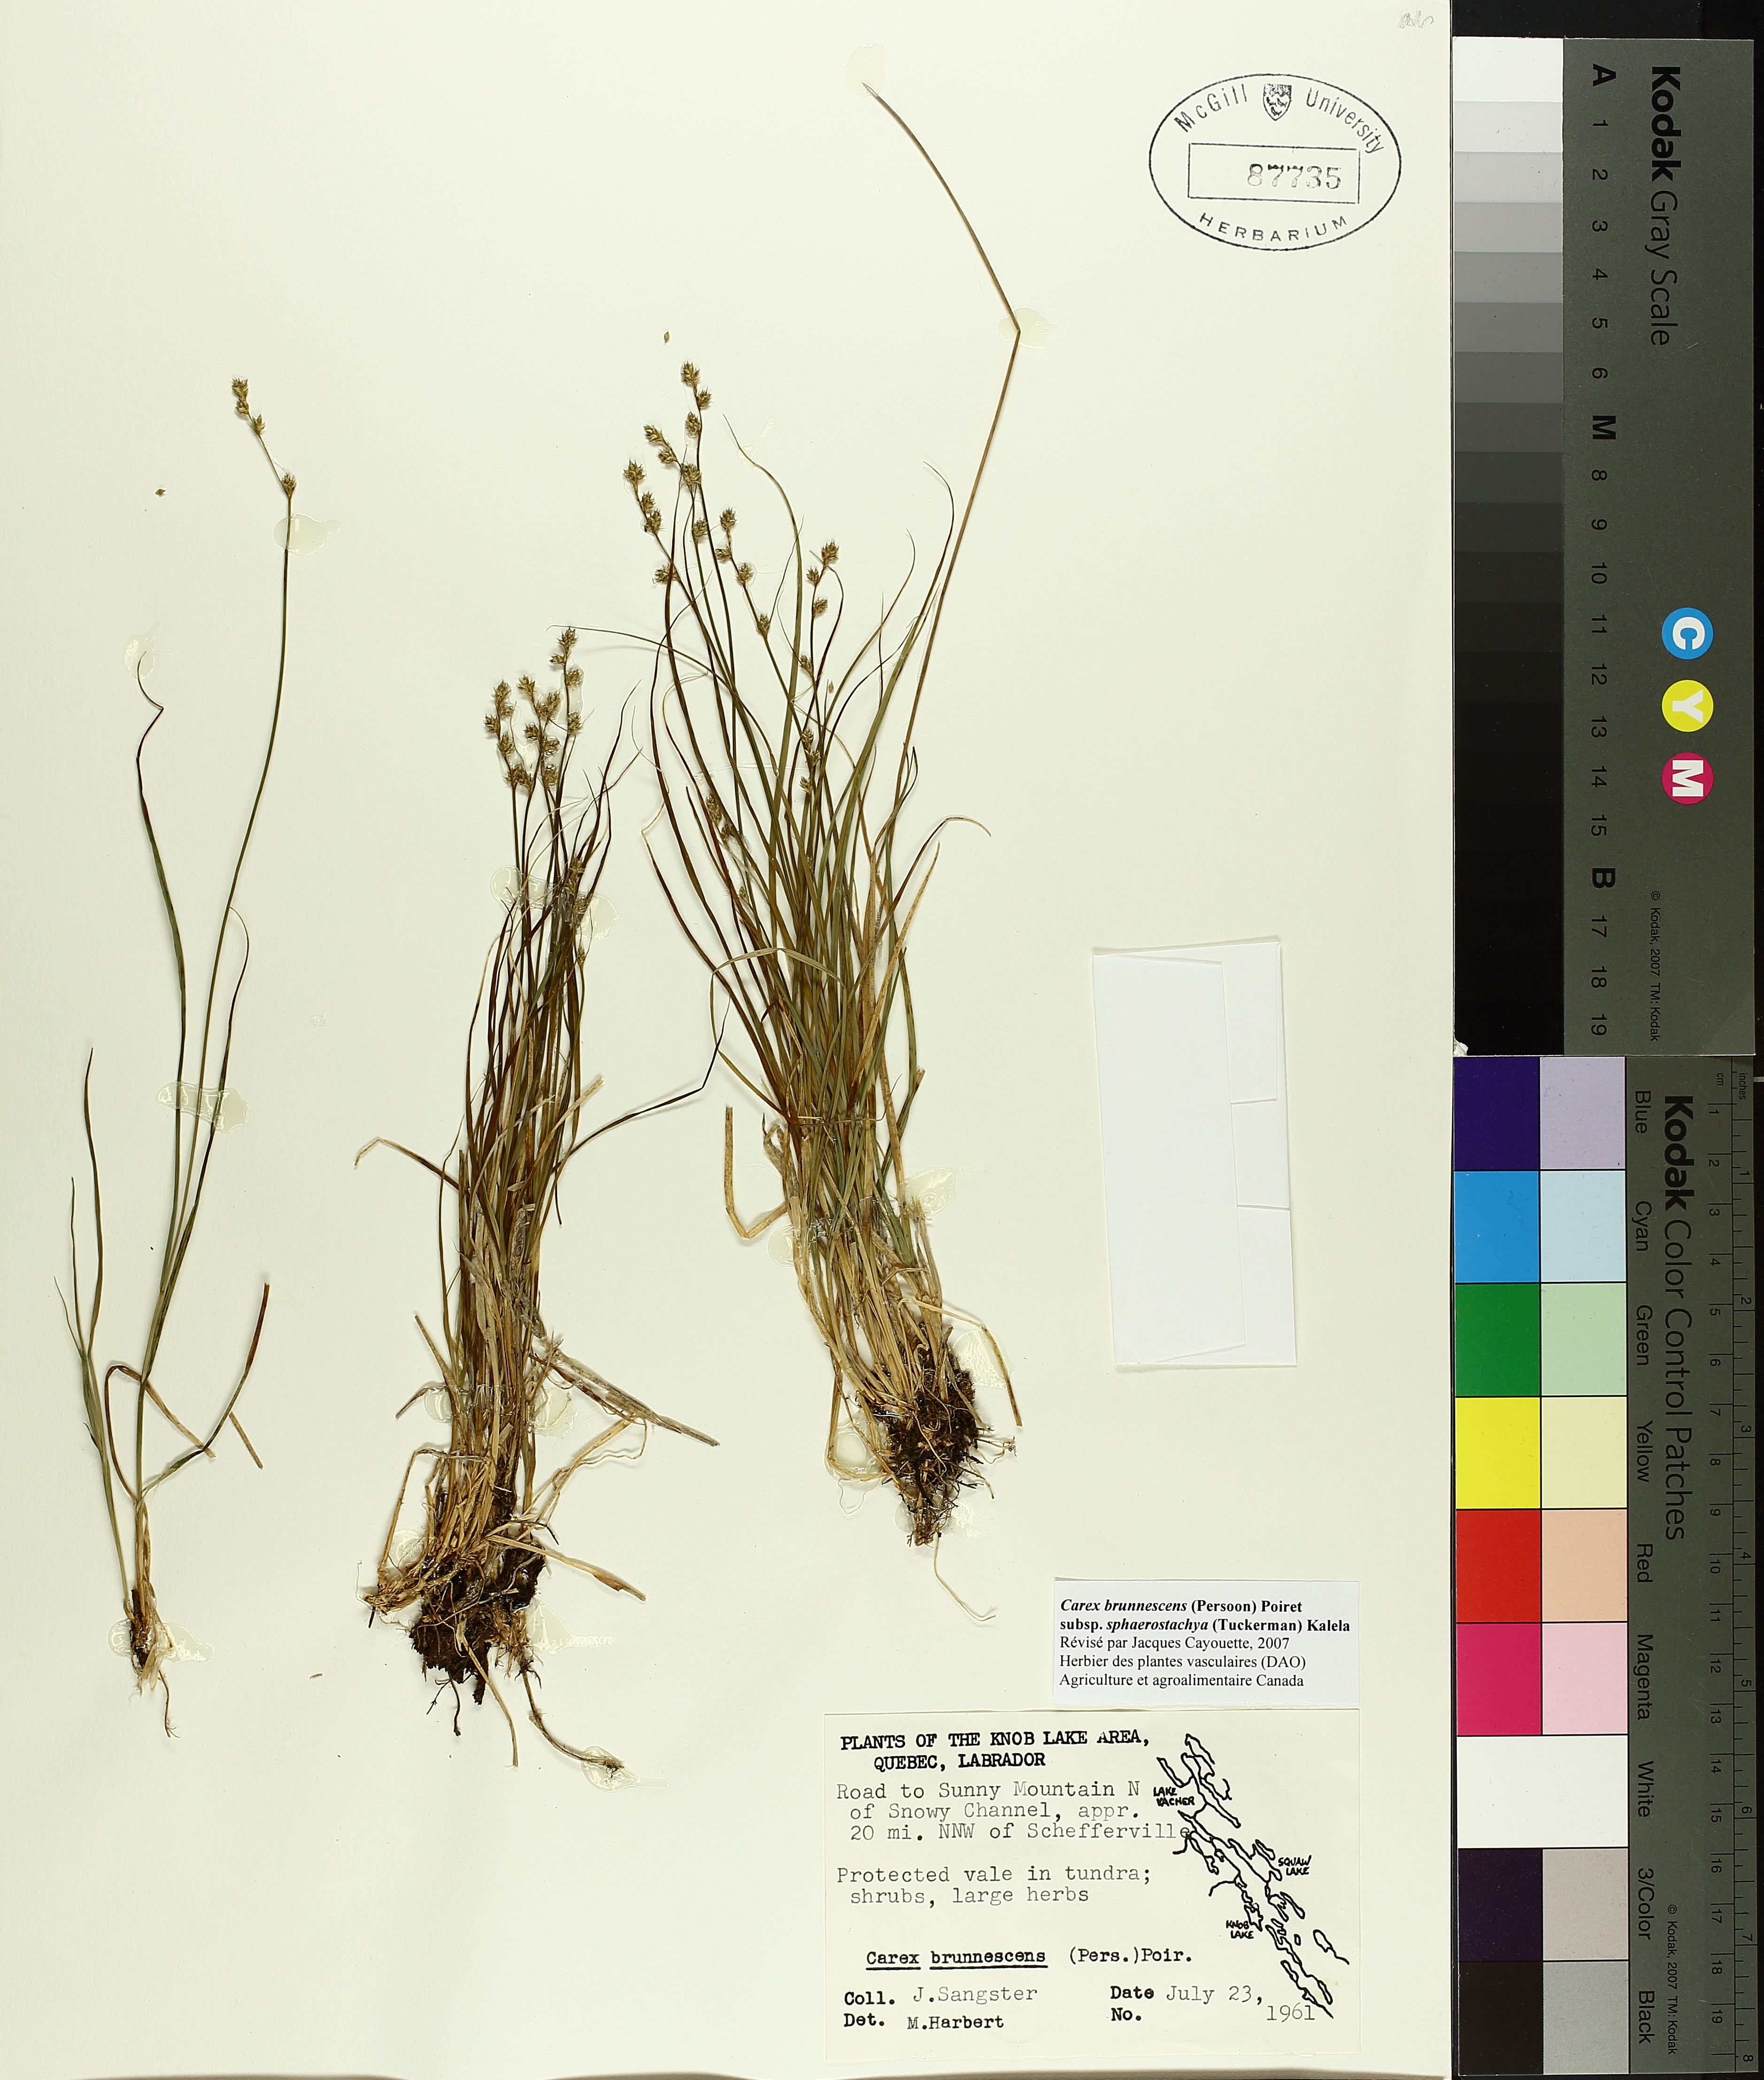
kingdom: Plantae
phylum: Tracheophyta
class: Liliopsida
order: Poales
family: Cyperaceae
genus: Carex
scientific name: Carex brunnescens
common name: Brown sedge
